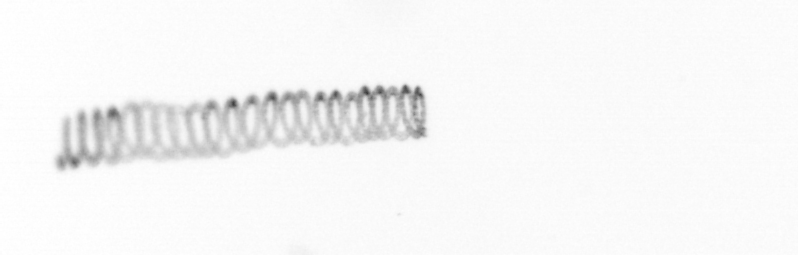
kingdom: Chromista
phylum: Ochrophyta
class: Bacillariophyceae
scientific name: Bacillariophyceae
